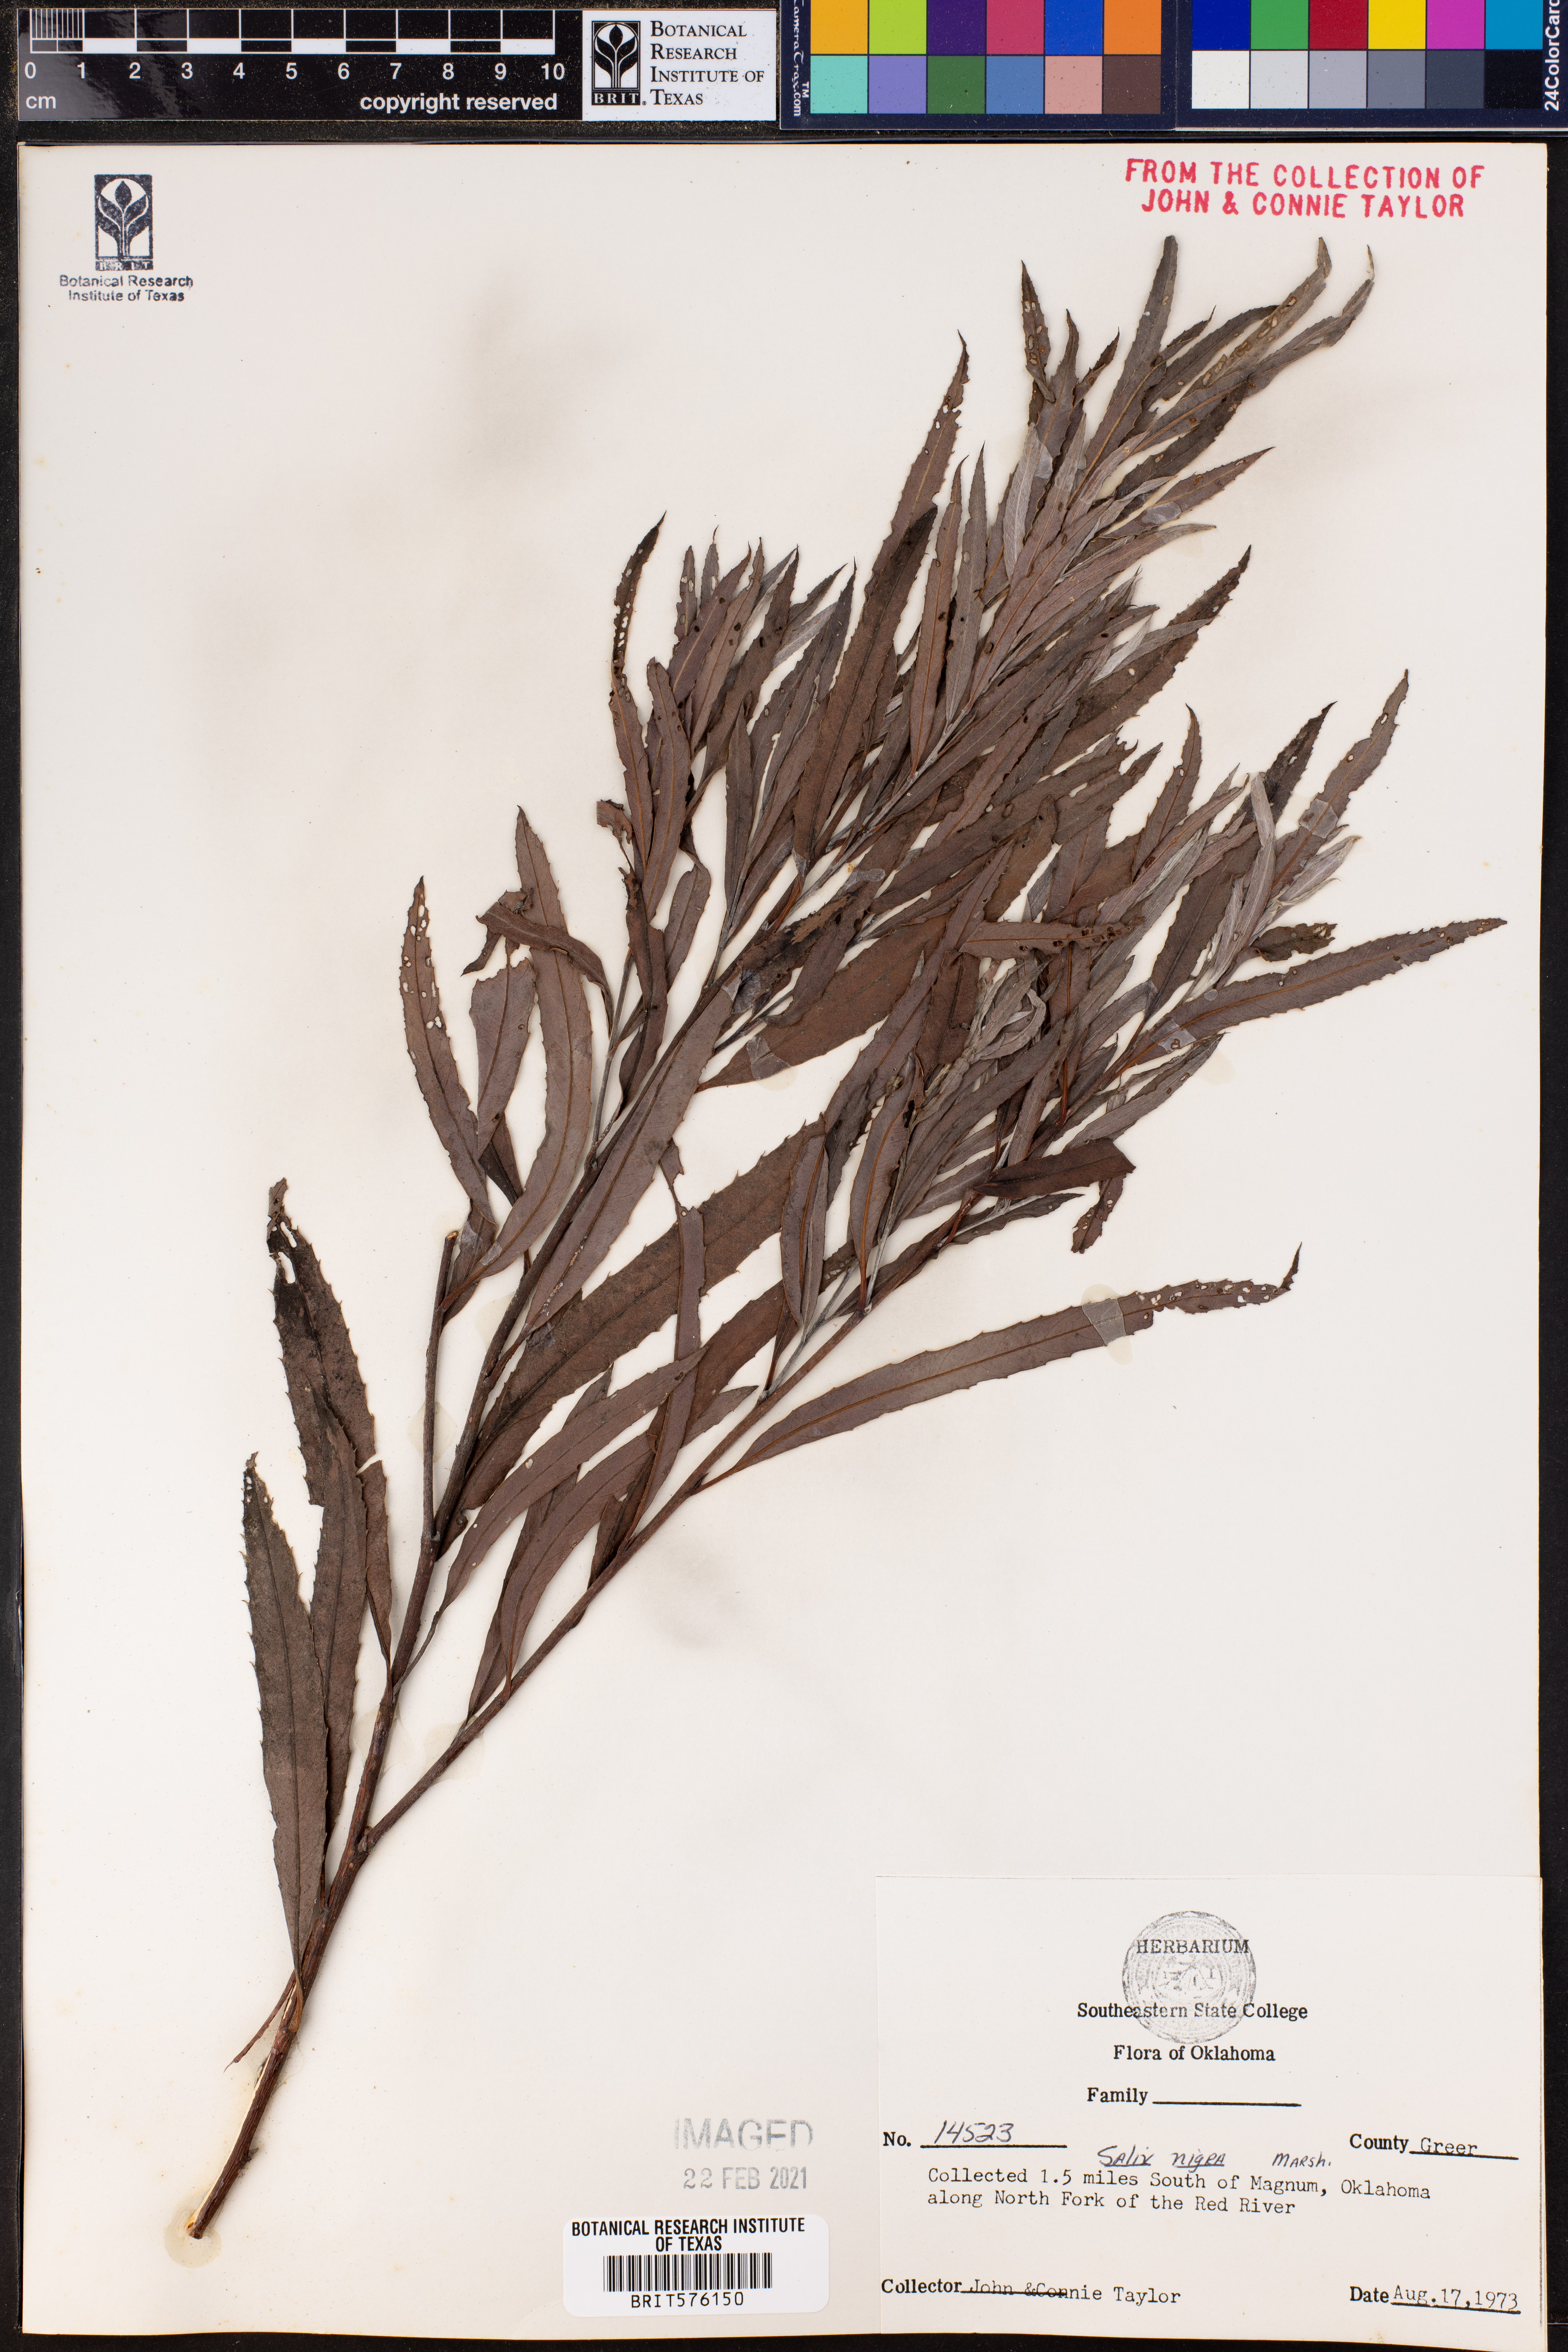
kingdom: Plantae
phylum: Tracheophyta
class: Magnoliopsida
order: Malpighiales
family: Salicaceae
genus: Salix
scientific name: Salix nigra
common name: Black willow
